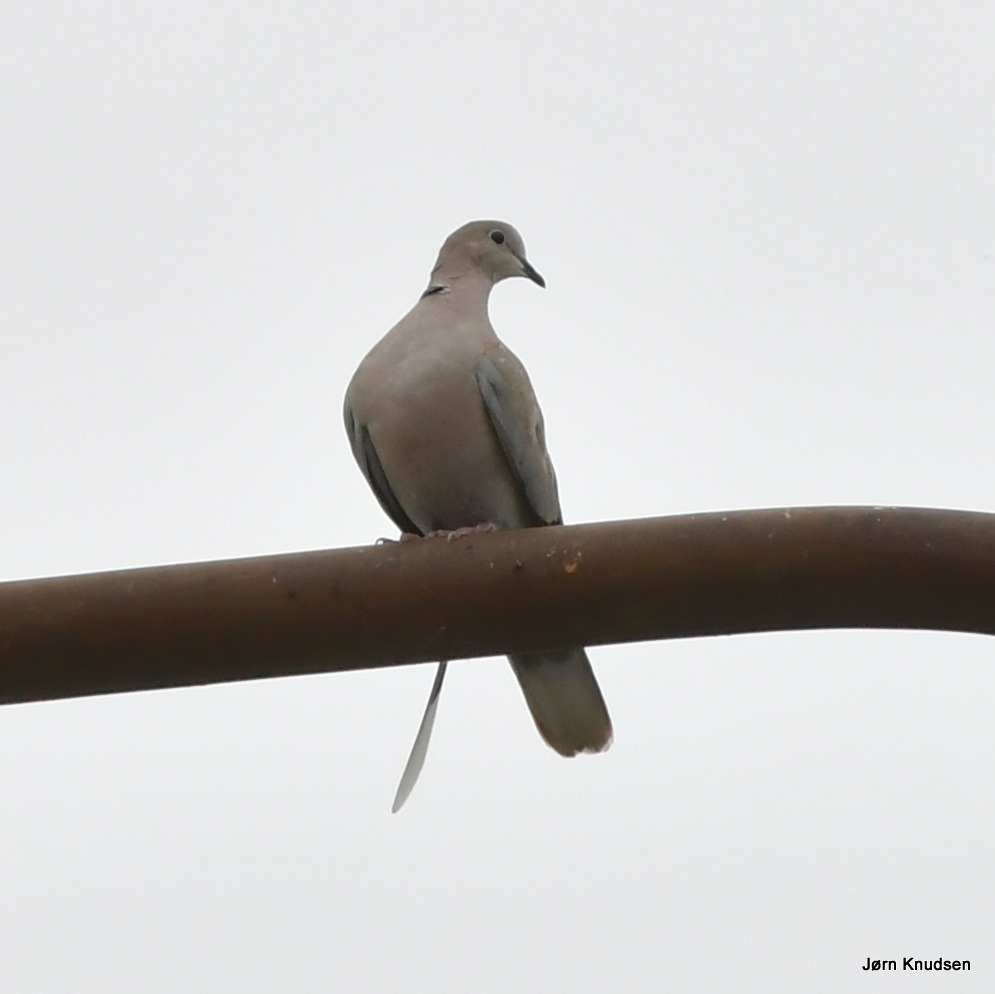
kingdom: Animalia
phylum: Chordata
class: Aves
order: Columbiformes
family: Columbidae
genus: Streptopelia
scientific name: Streptopelia decaocto
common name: Tyrkerdue
